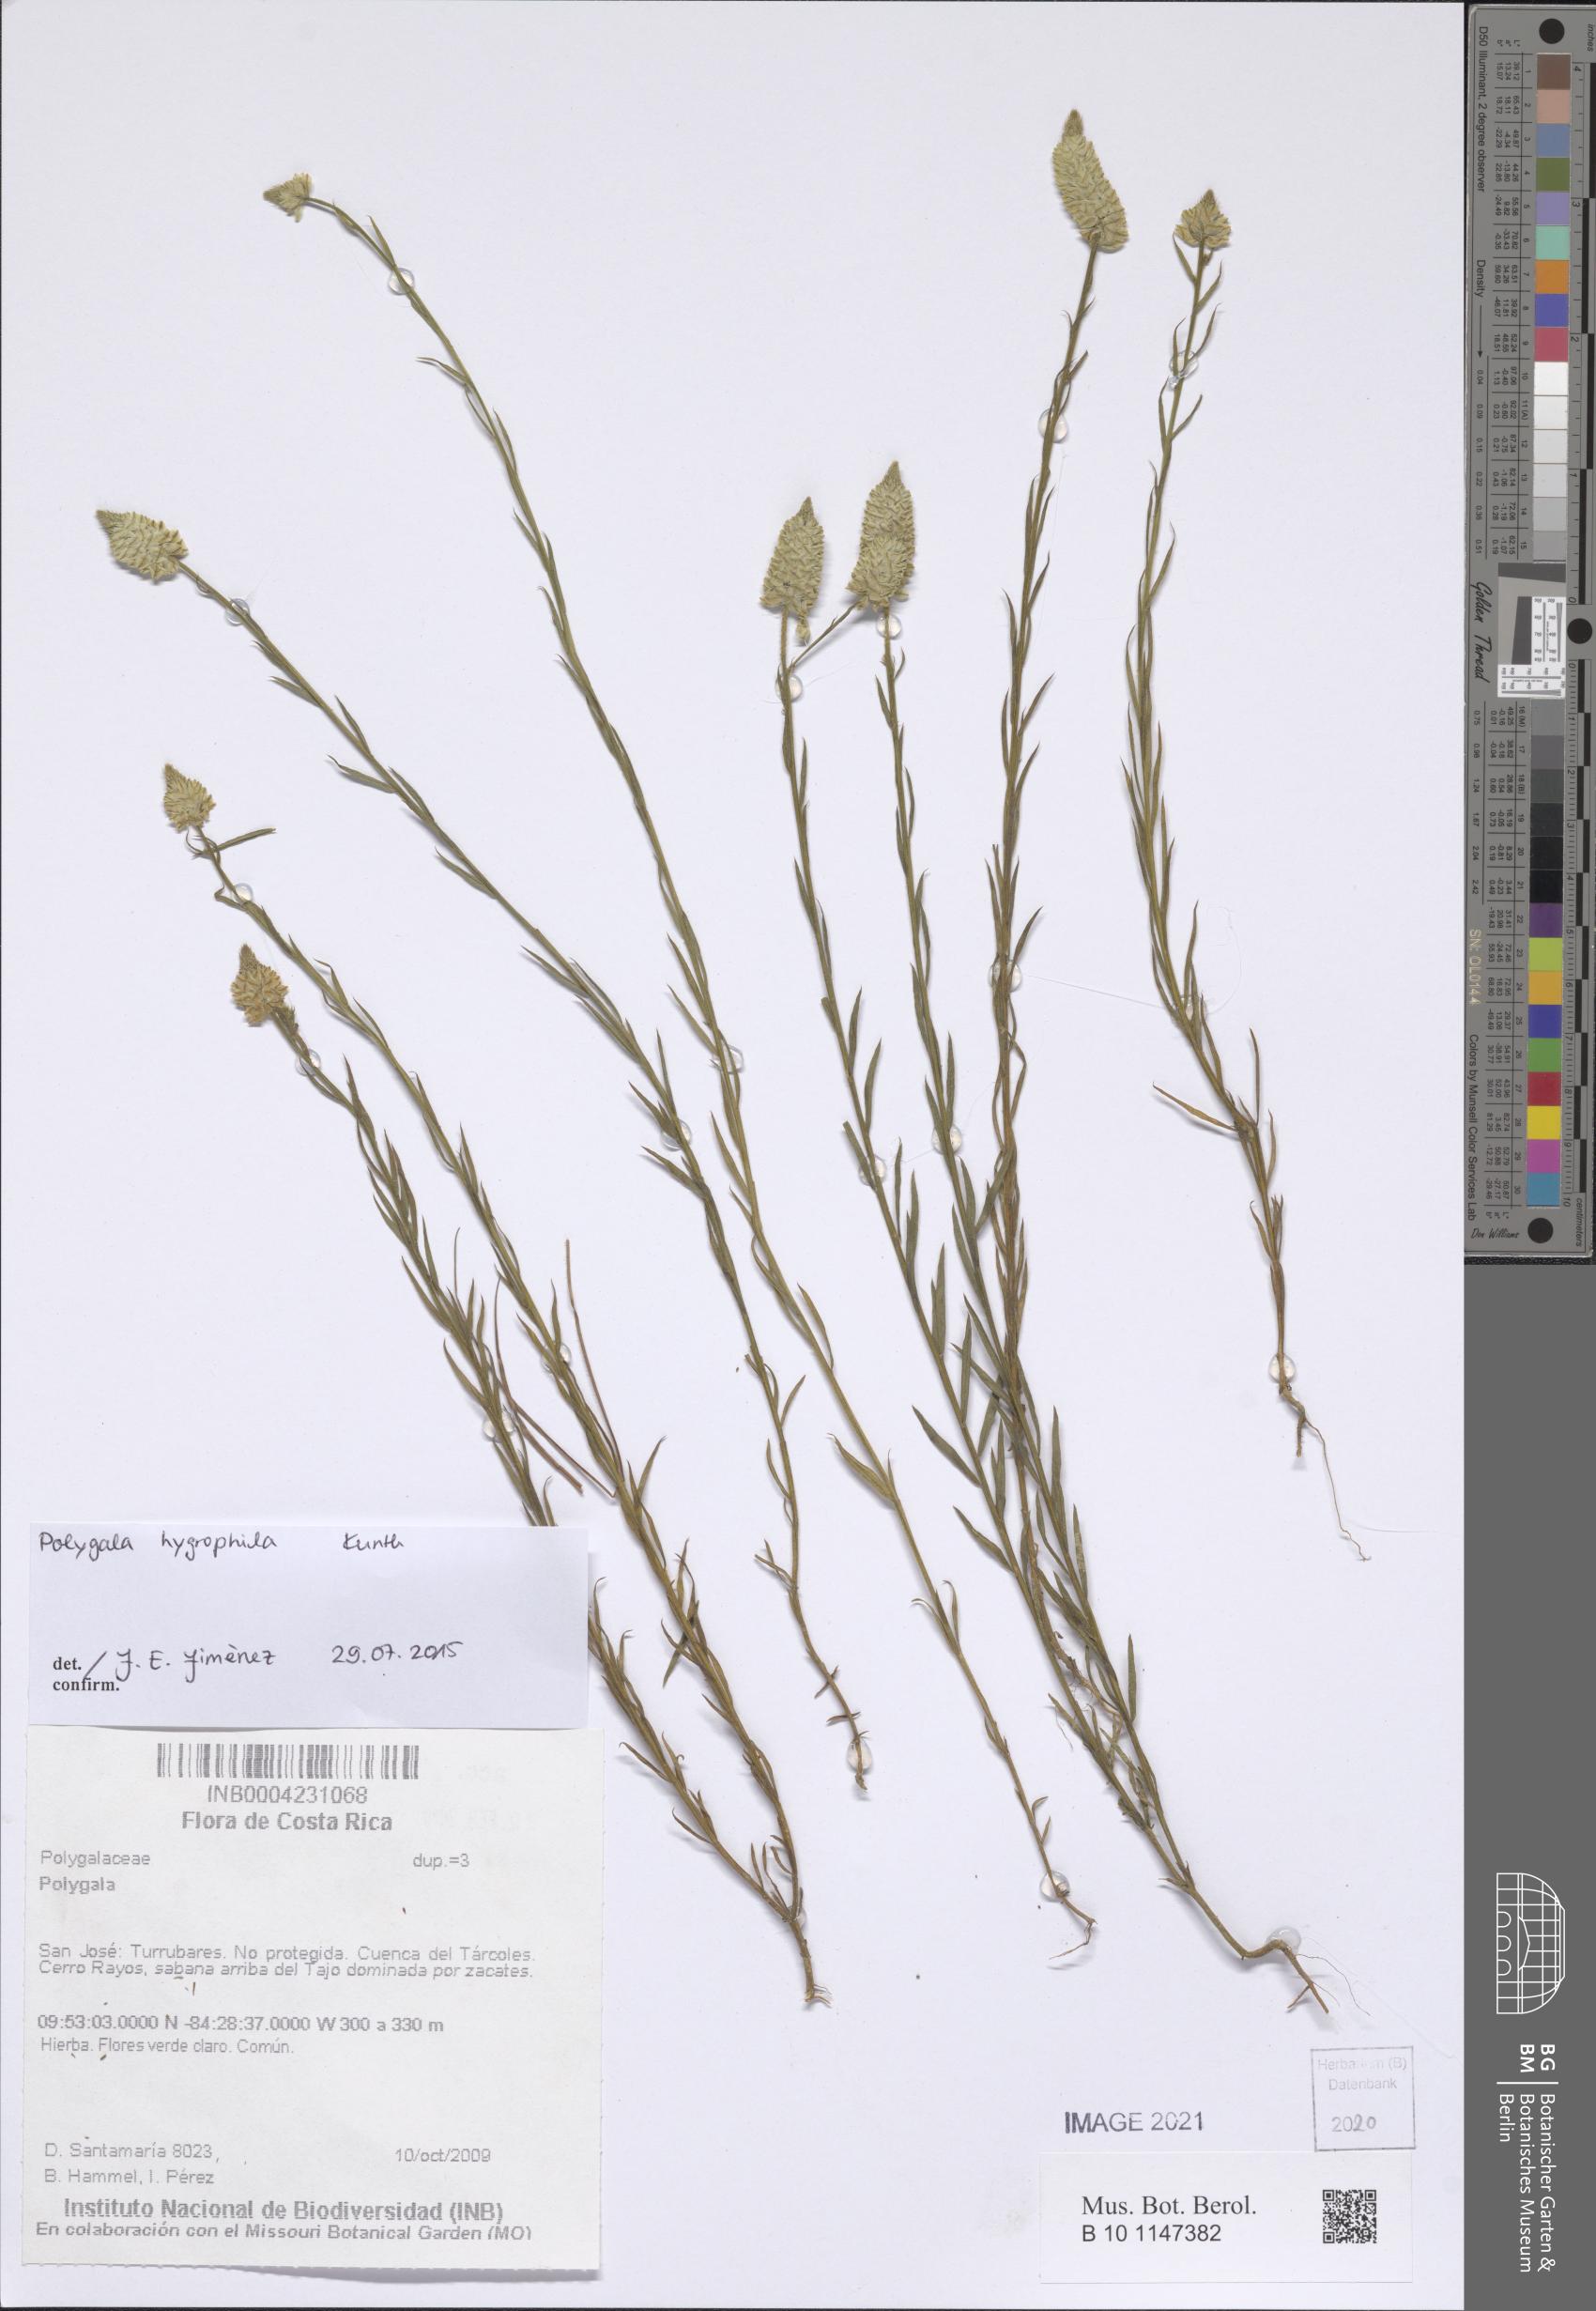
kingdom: Plantae
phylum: Tracheophyta
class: Magnoliopsida
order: Fabales
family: Polygalaceae
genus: Polygala
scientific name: Polygala hygrophila
